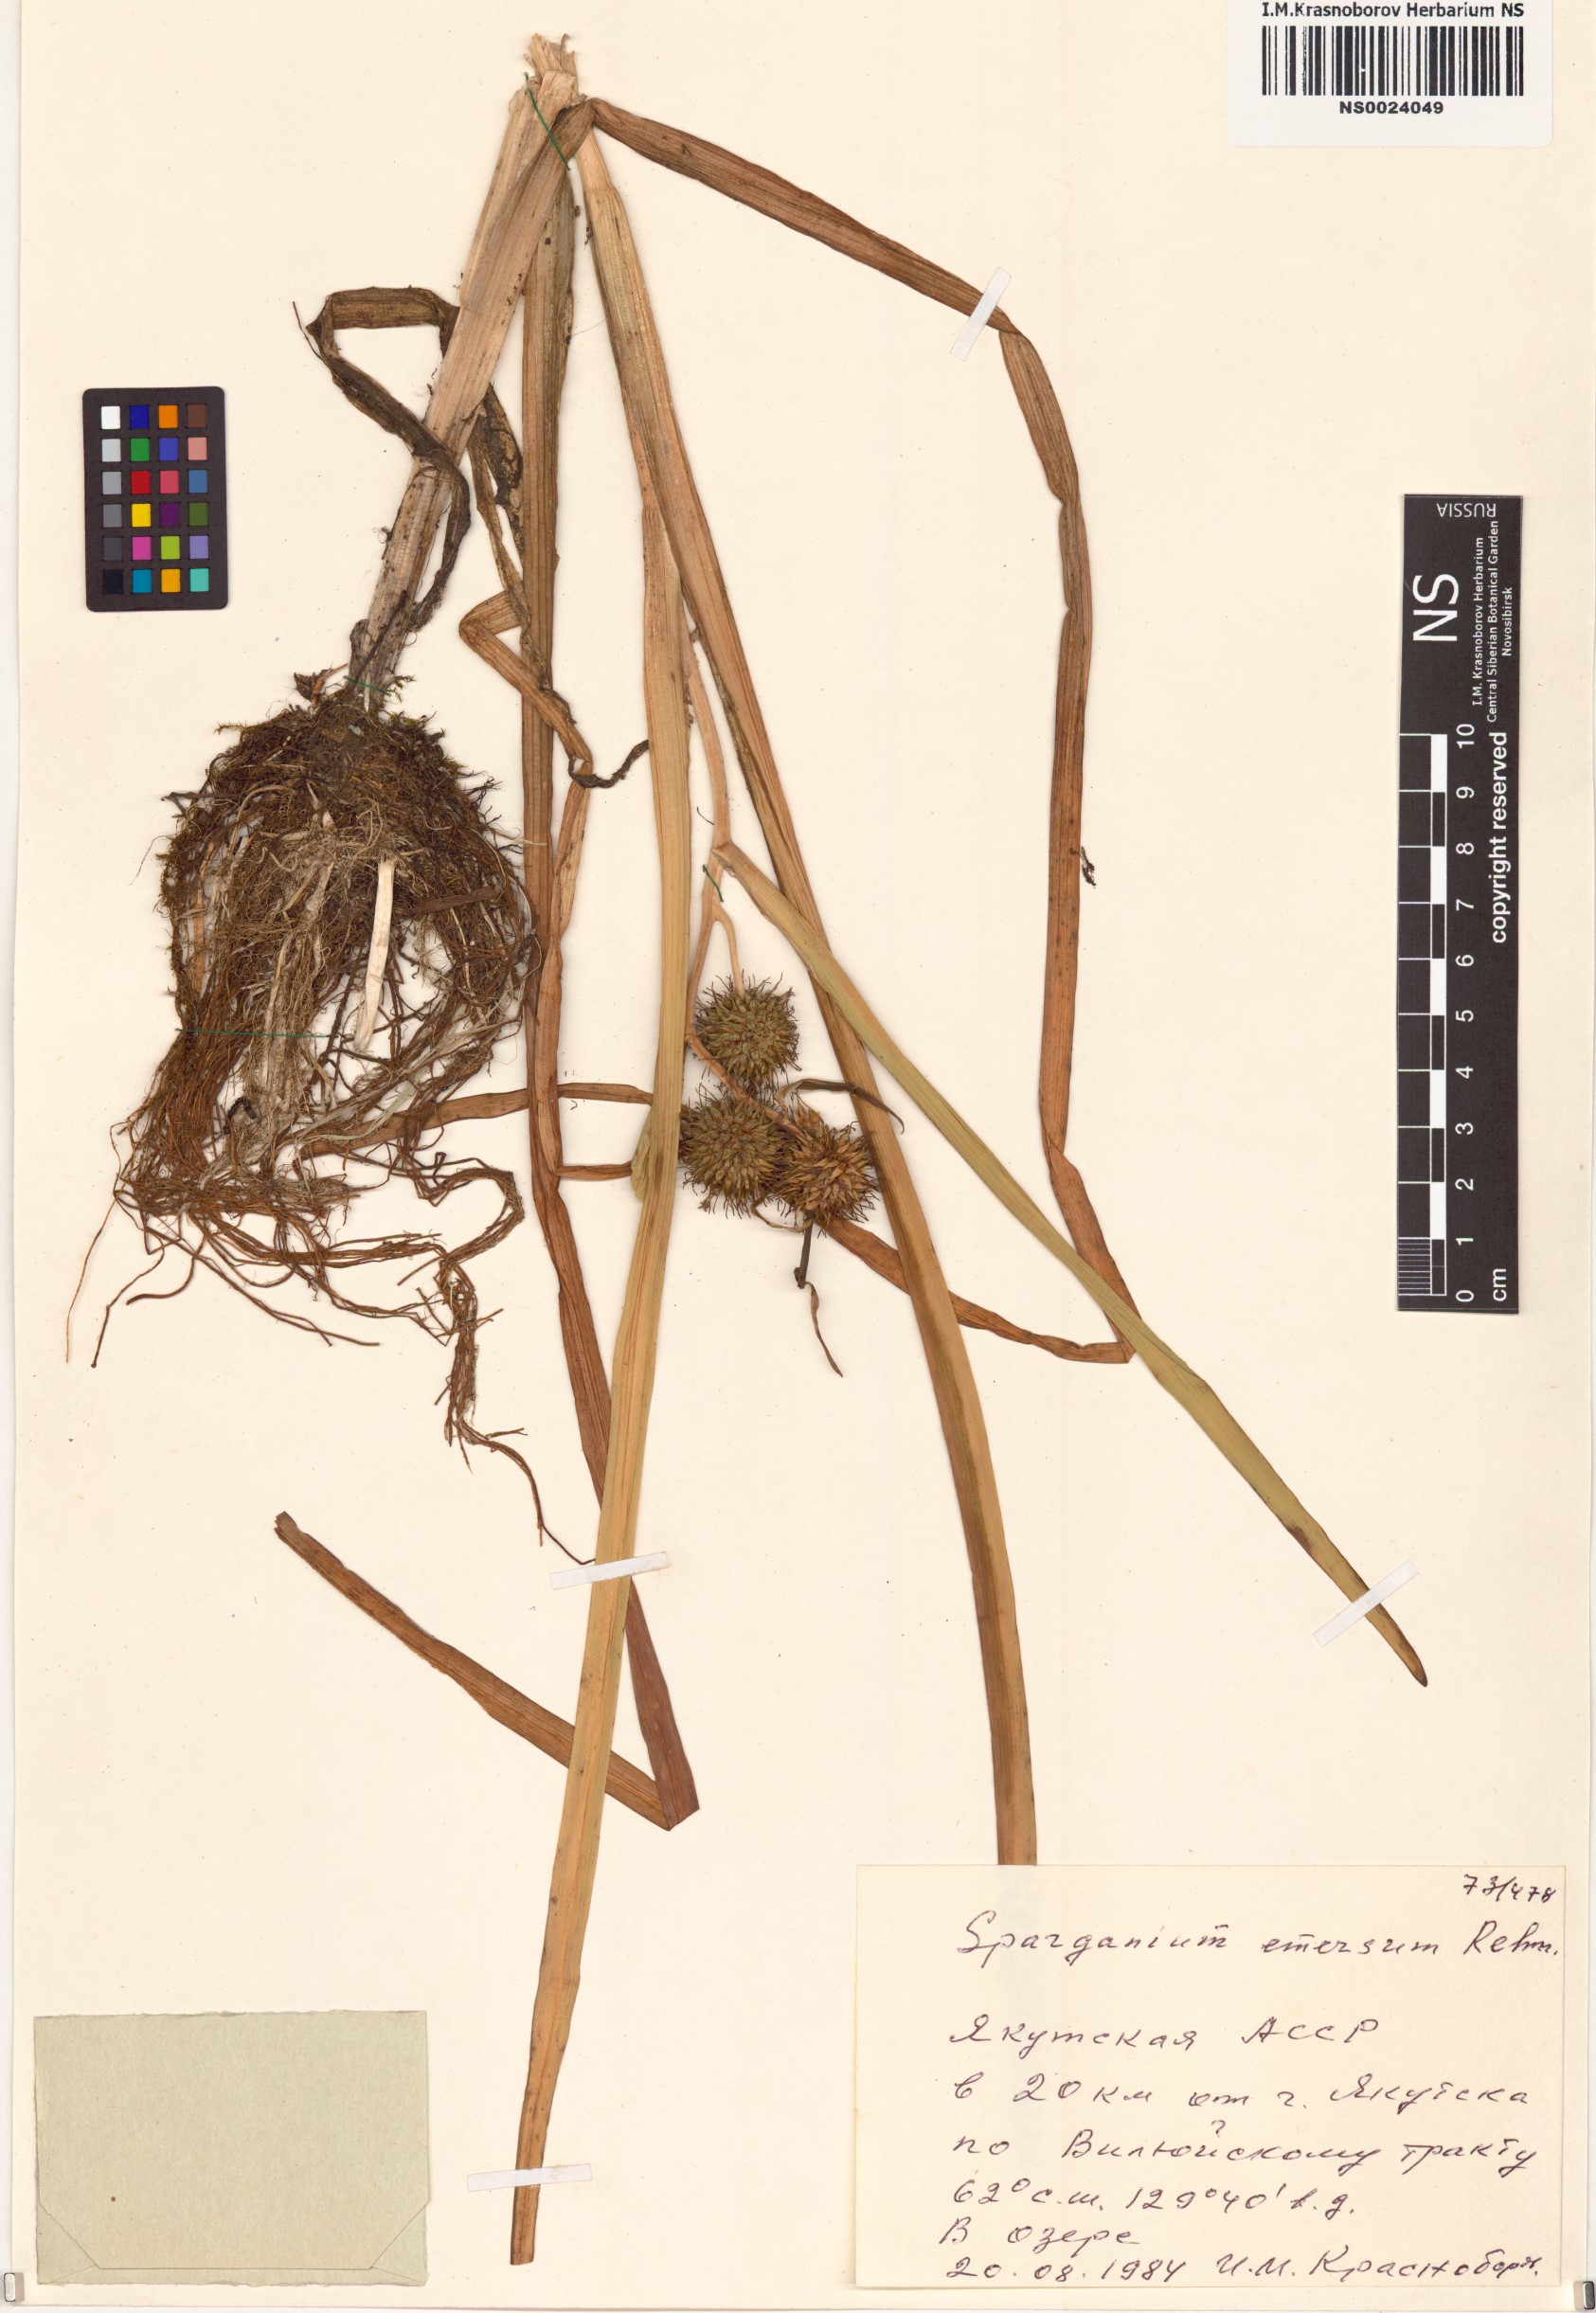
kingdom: Plantae
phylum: Tracheophyta
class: Liliopsida
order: Poales
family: Typhaceae
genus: Sparganium
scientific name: Sparganium emersum
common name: Unbranched bur-reed
